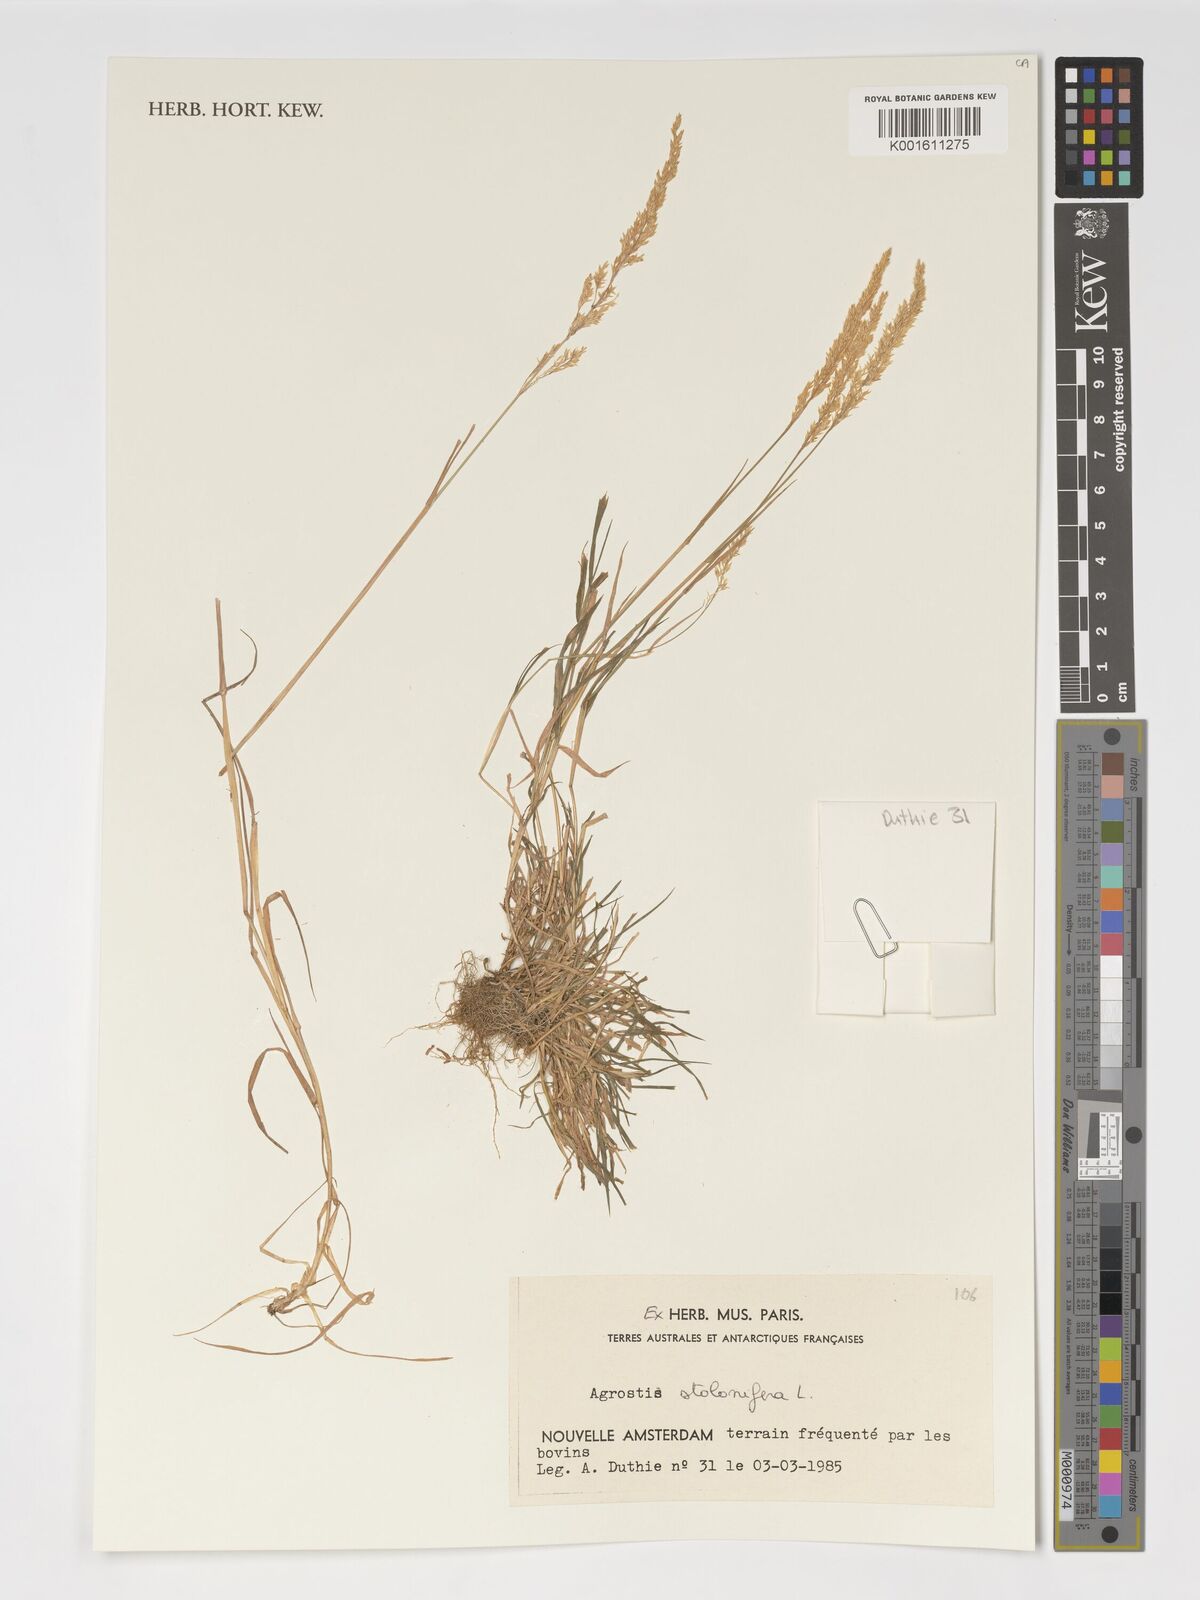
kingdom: Plantae
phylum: Tracheophyta
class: Liliopsida
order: Poales
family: Poaceae
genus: Agrostis
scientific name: Agrostis stolonifera
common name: Creeping bentgrass
